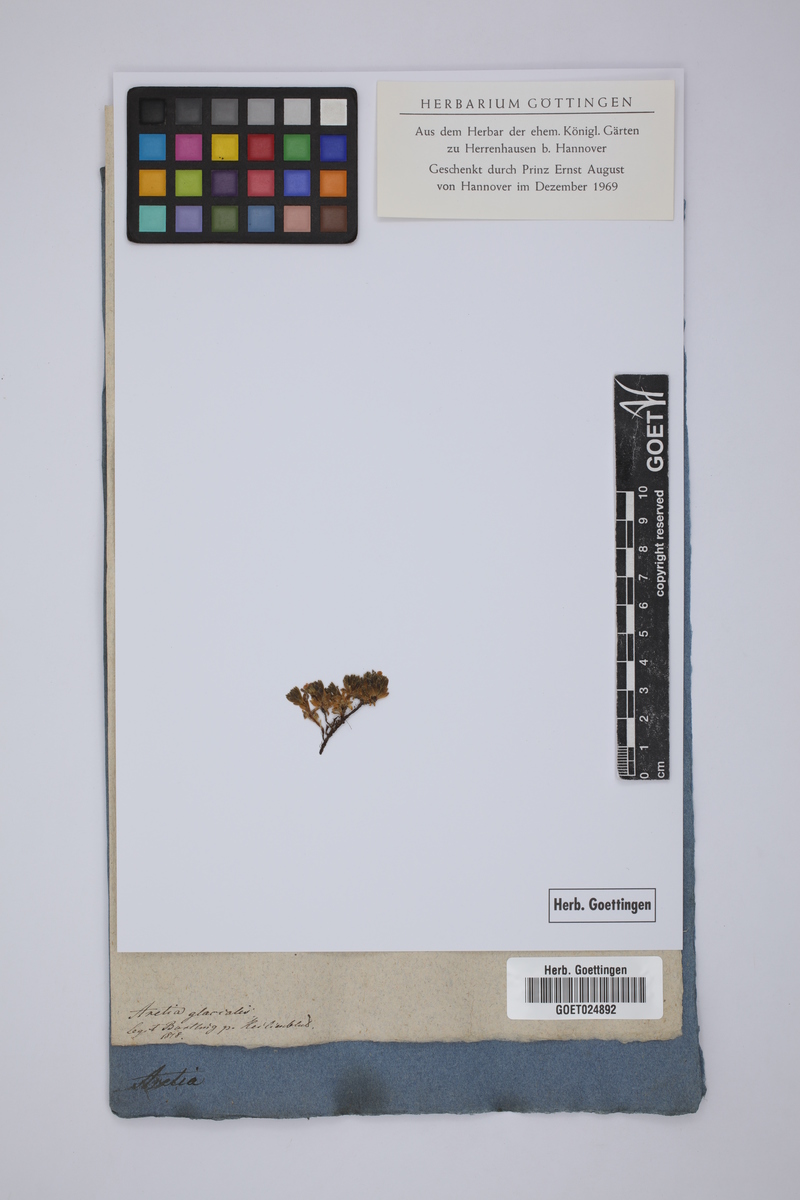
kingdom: Plantae
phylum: Tracheophyta
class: Magnoliopsida
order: Ericales
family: Primulaceae
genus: Androsace
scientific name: Androsace alpina
